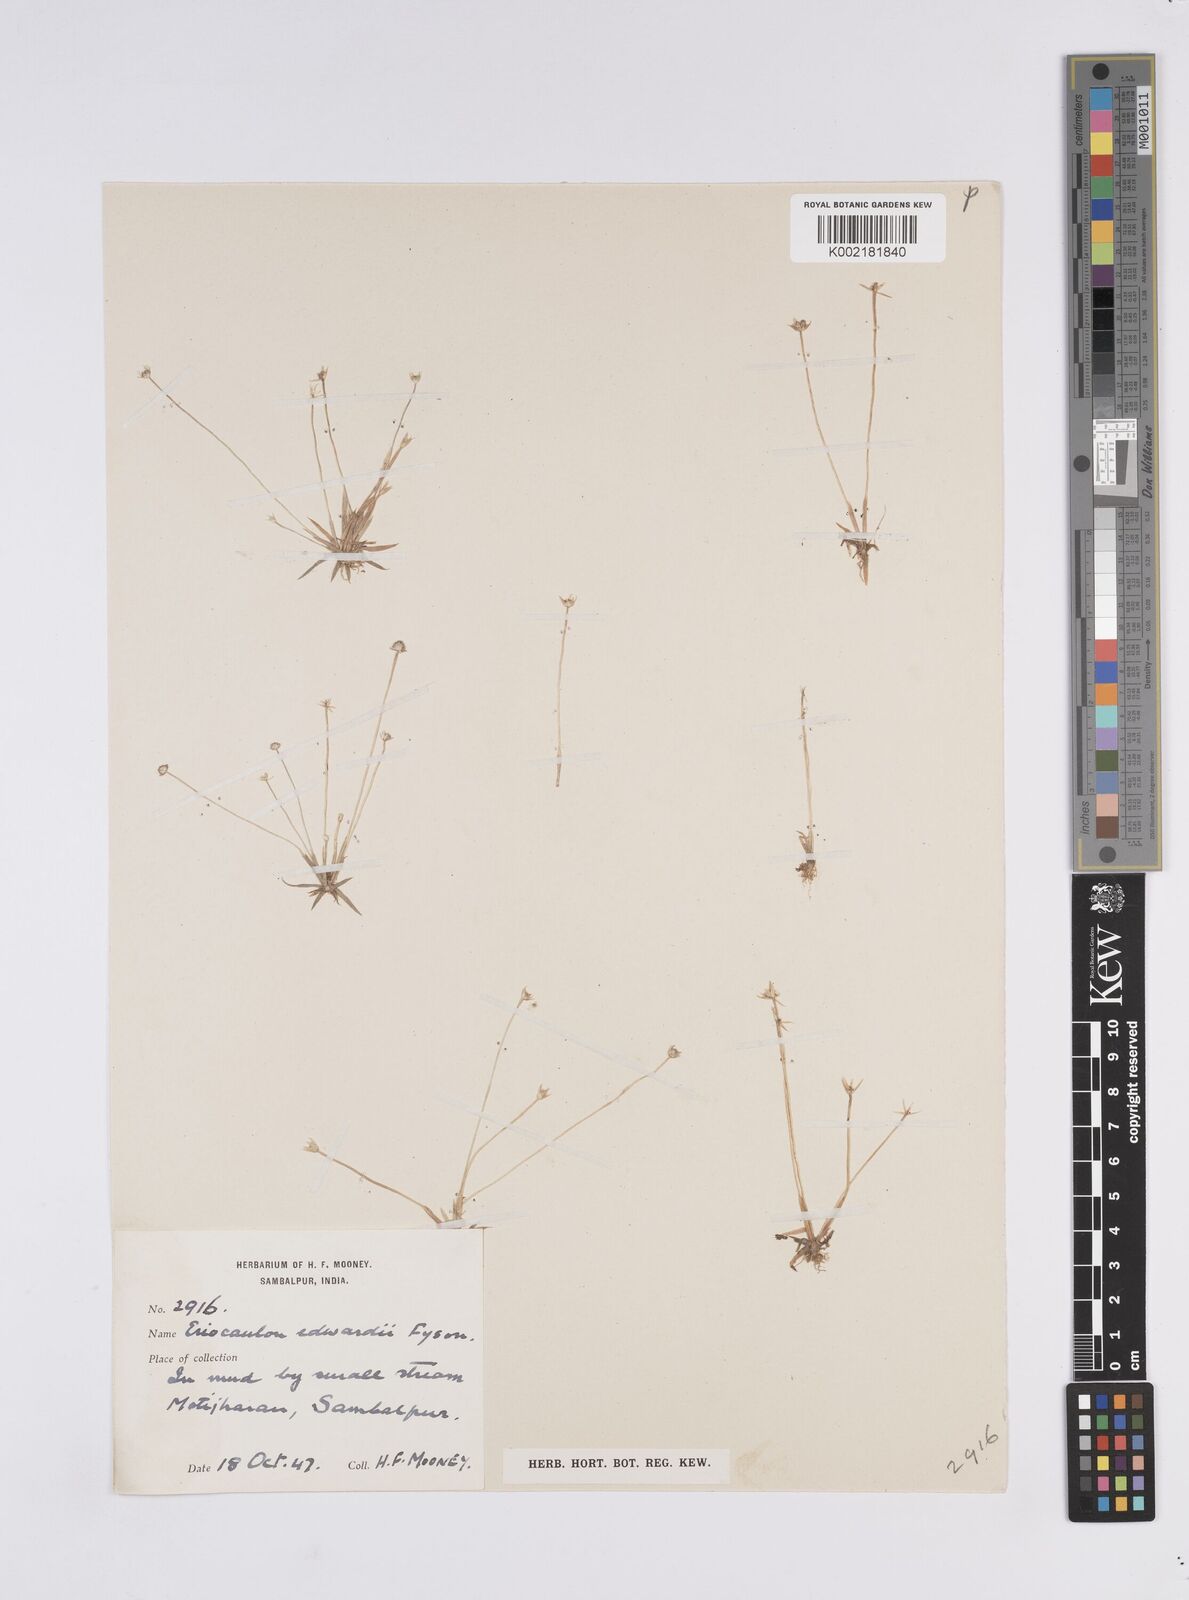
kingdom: Plantae
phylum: Tracheophyta
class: Liliopsida
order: Poales
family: Eriocaulaceae
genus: Eriocaulon
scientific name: Eriocaulon edwardii
